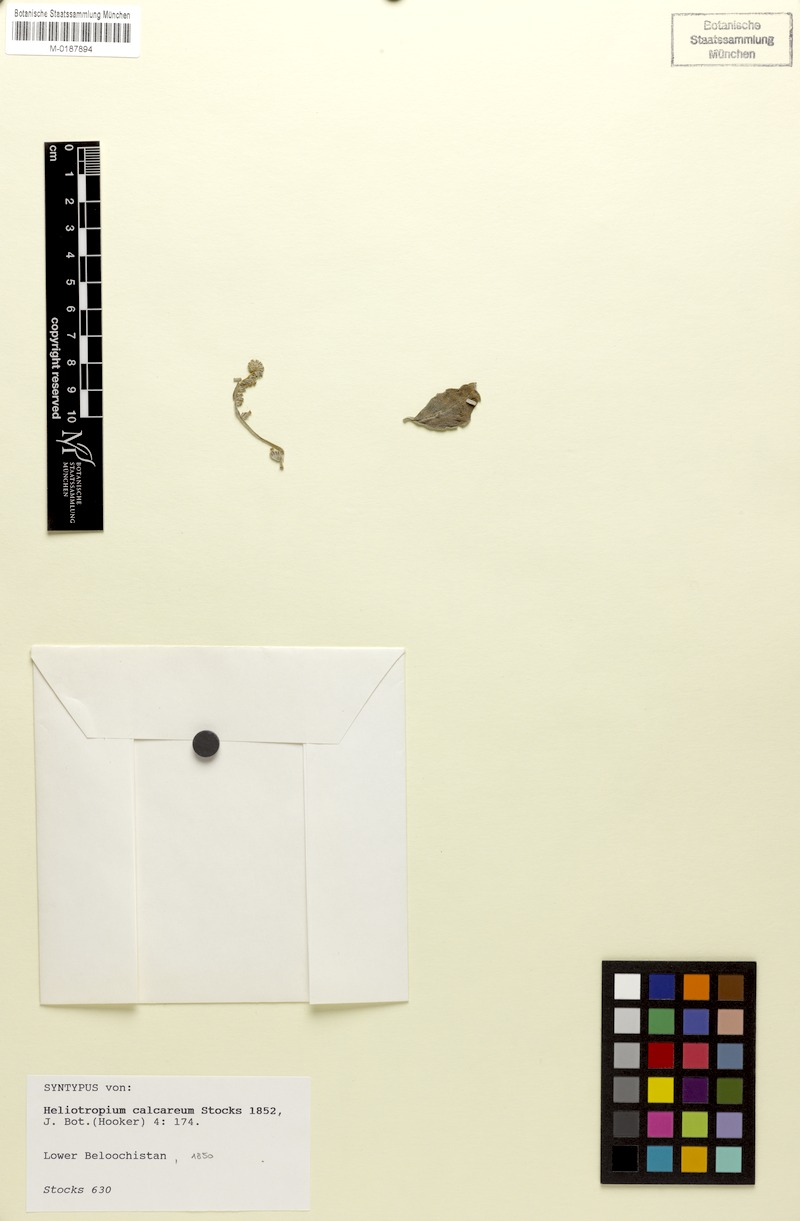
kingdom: Plantae
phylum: Tracheophyta
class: Magnoliopsida
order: Boraginales
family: Heliotropiaceae
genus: Heliotropium
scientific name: Heliotropium brevilimbe
